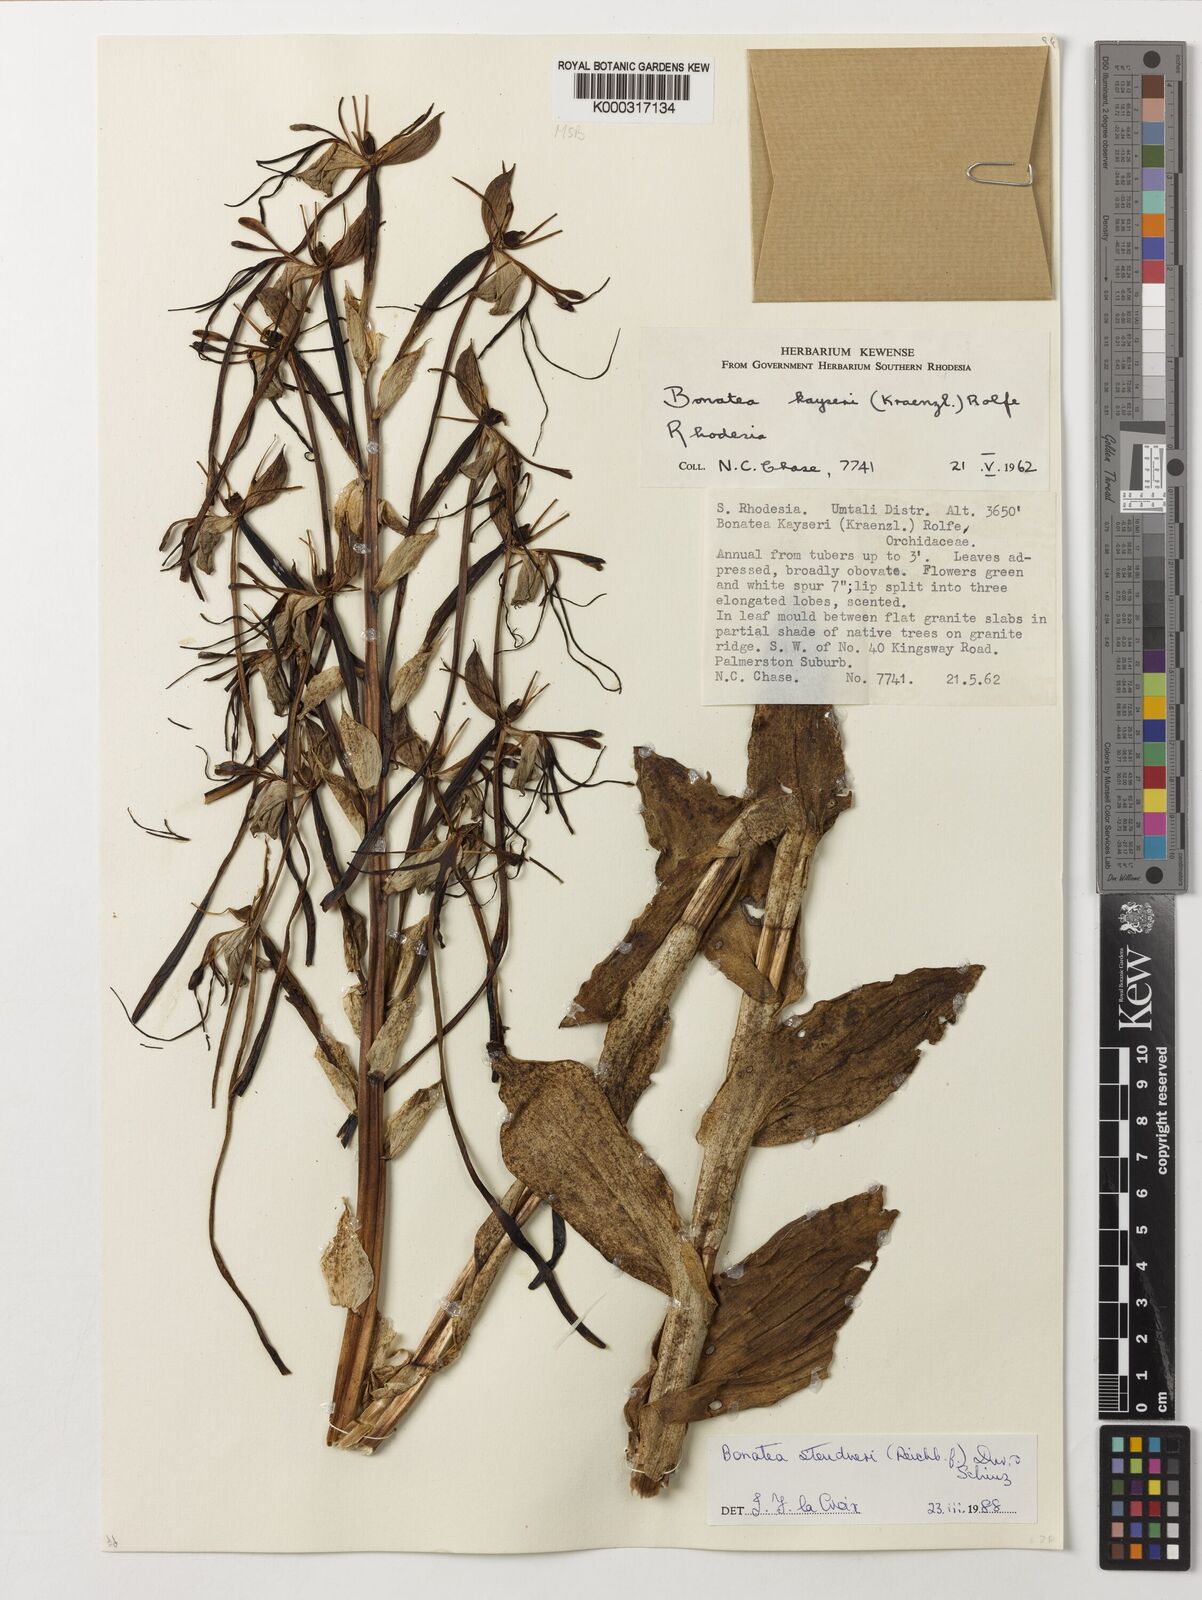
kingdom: Plantae
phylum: Tracheophyta
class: Liliopsida
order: Asparagales
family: Orchidaceae
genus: Bonatea
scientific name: Bonatea steudneri
